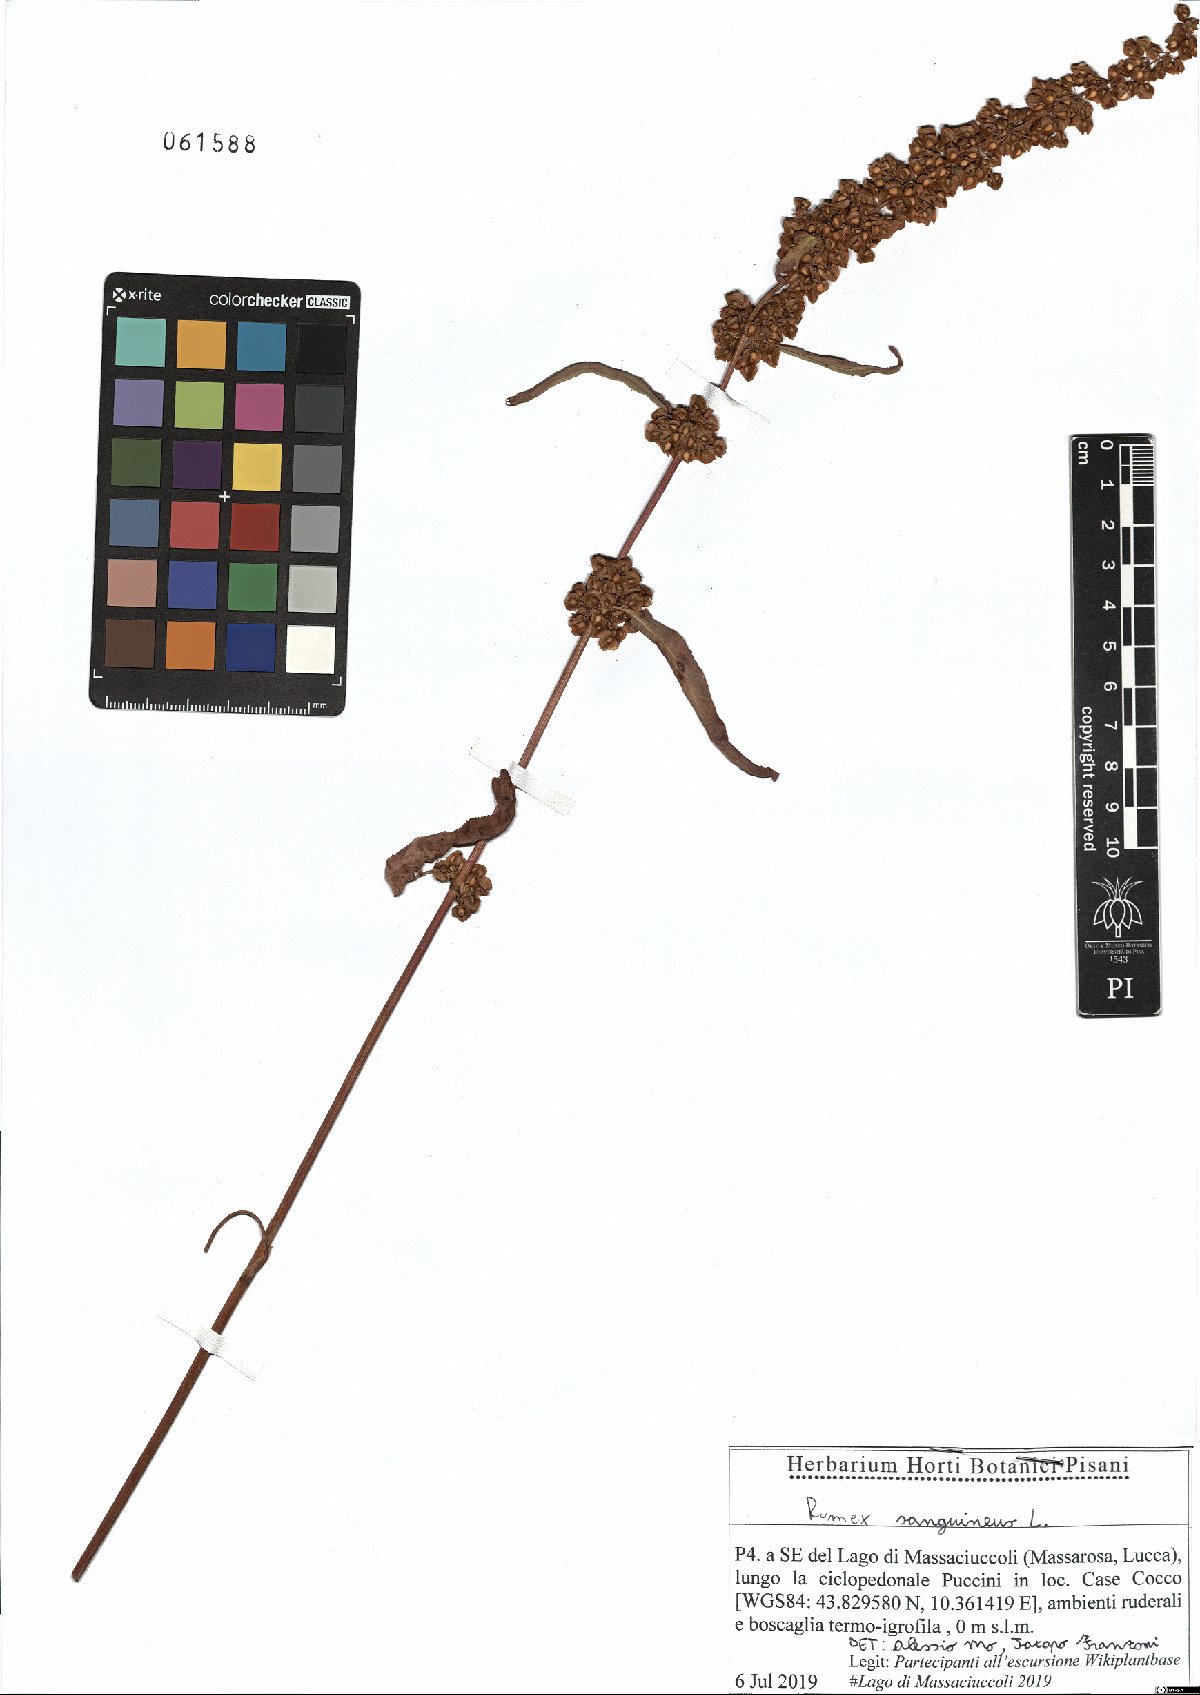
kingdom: Plantae
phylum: Tracheophyta
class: Magnoliopsida
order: Caryophyllales
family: Polygonaceae
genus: Rumex
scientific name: Rumex sanguineus
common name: Wood dock
